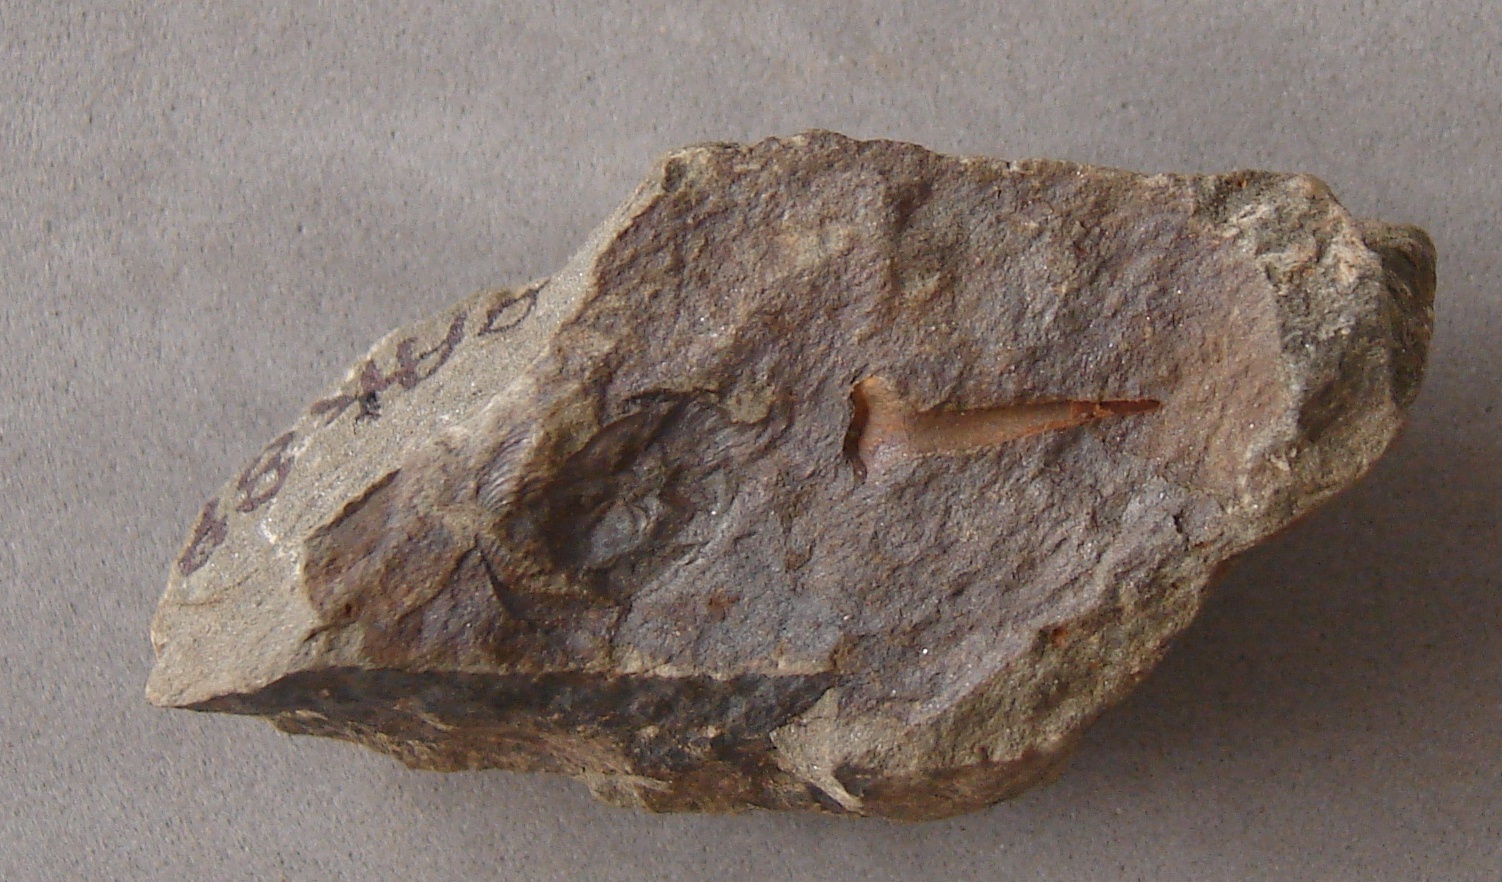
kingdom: Animalia
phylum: Echinodermata
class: Crinoidea
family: Rhodocrinitidae
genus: Acanthocrinus
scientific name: Acanthocrinus
